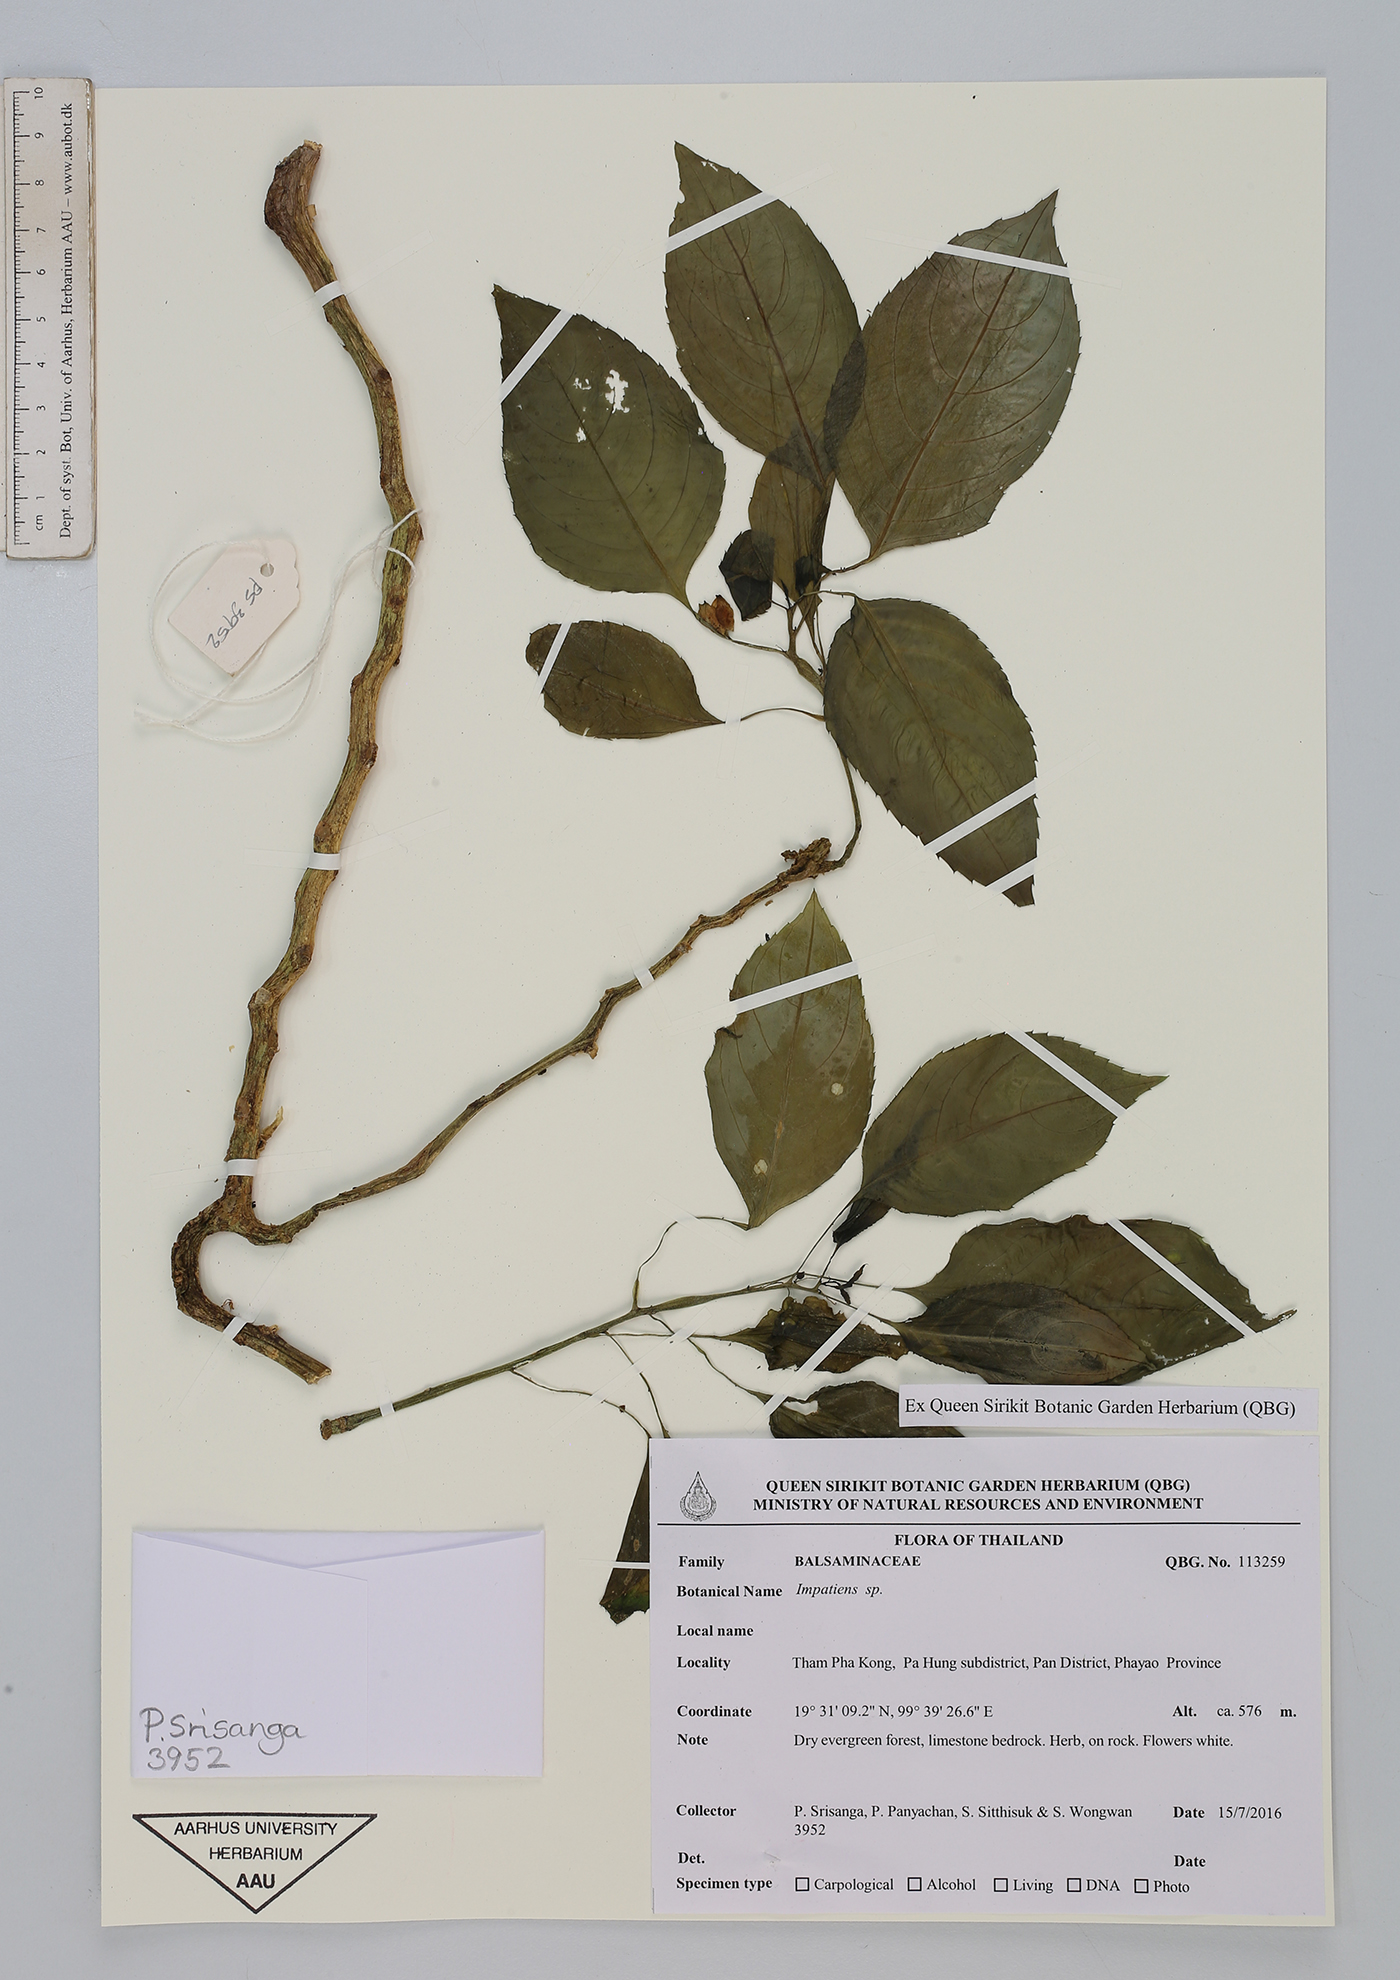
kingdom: Plantae
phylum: Tracheophyta
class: Magnoliopsida
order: Ericales
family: Balsaminaceae
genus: Impatiens
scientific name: Impatiens
